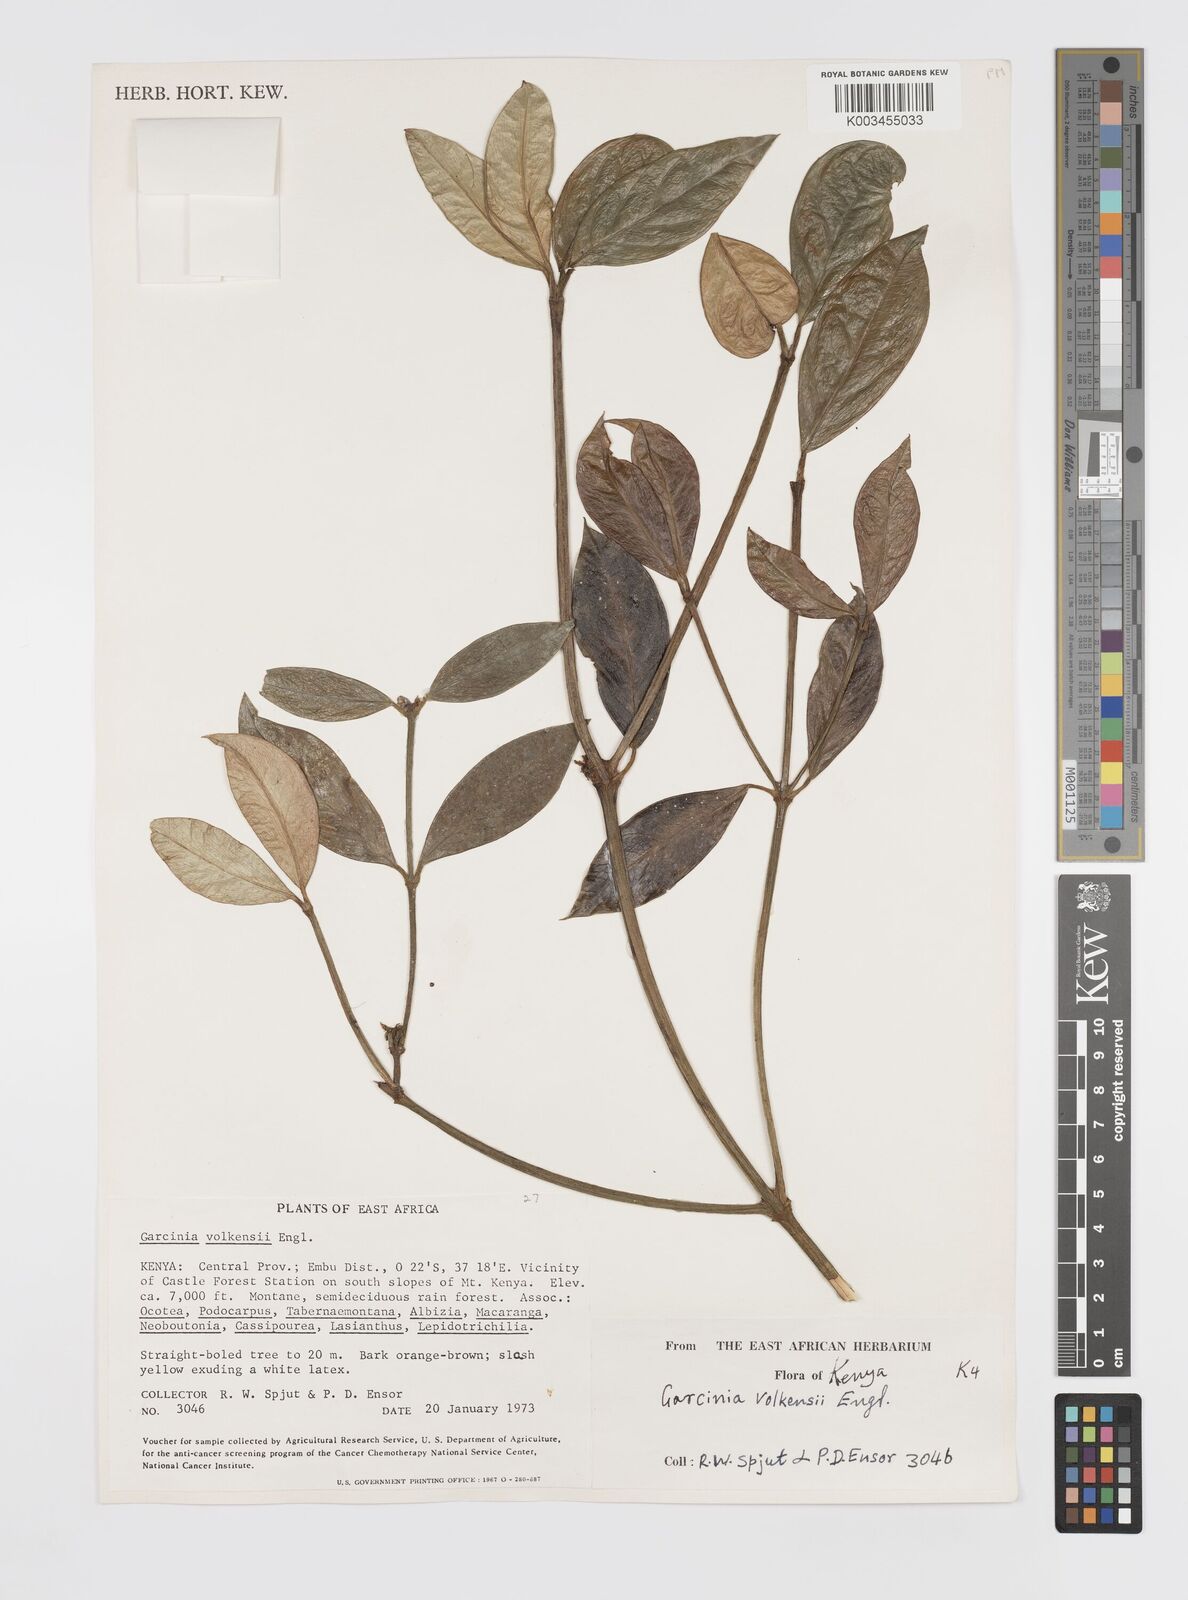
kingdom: Plantae
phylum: Tracheophyta
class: Magnoliopsida
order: Malpighiales
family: Clusiaceae
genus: Garcinia
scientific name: Garcinia volkensii
